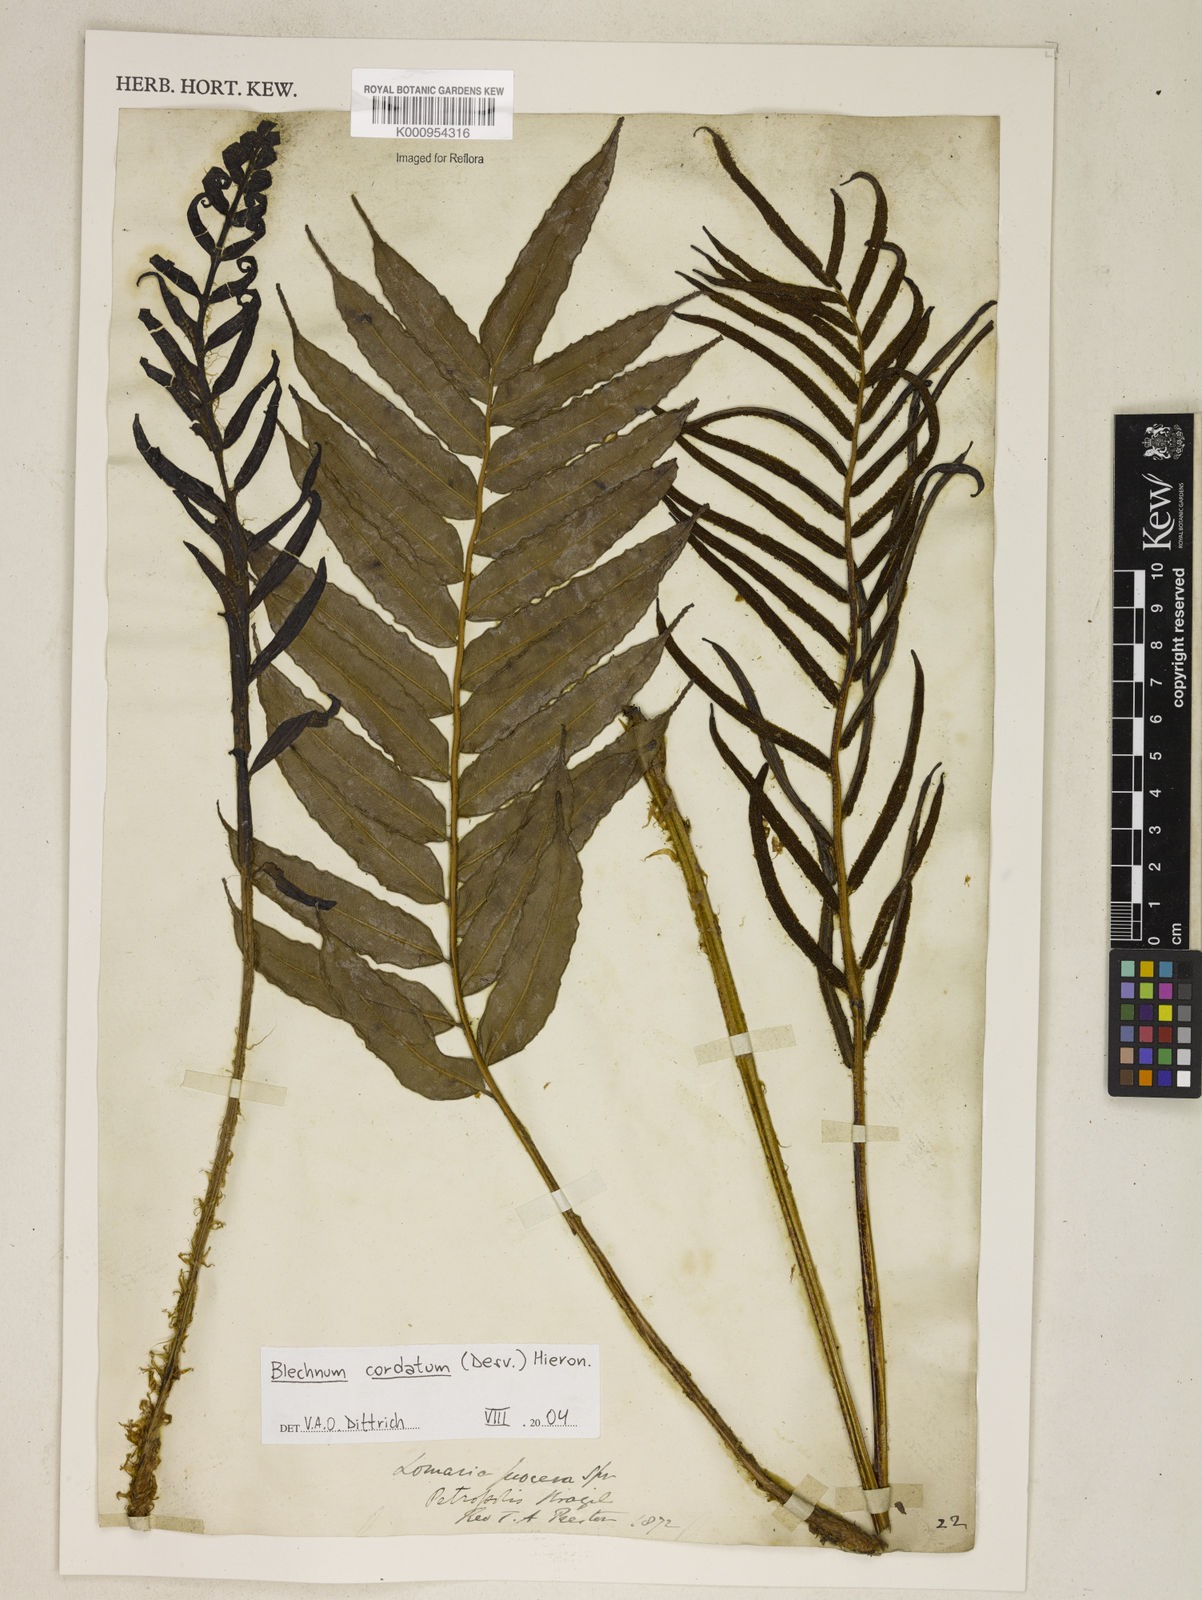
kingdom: Plantae
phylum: Tracheophyta
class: Polypodiopsida
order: Polypodiales
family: Blechnaceae
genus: Parablechnum
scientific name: Parablechnum cordatum
